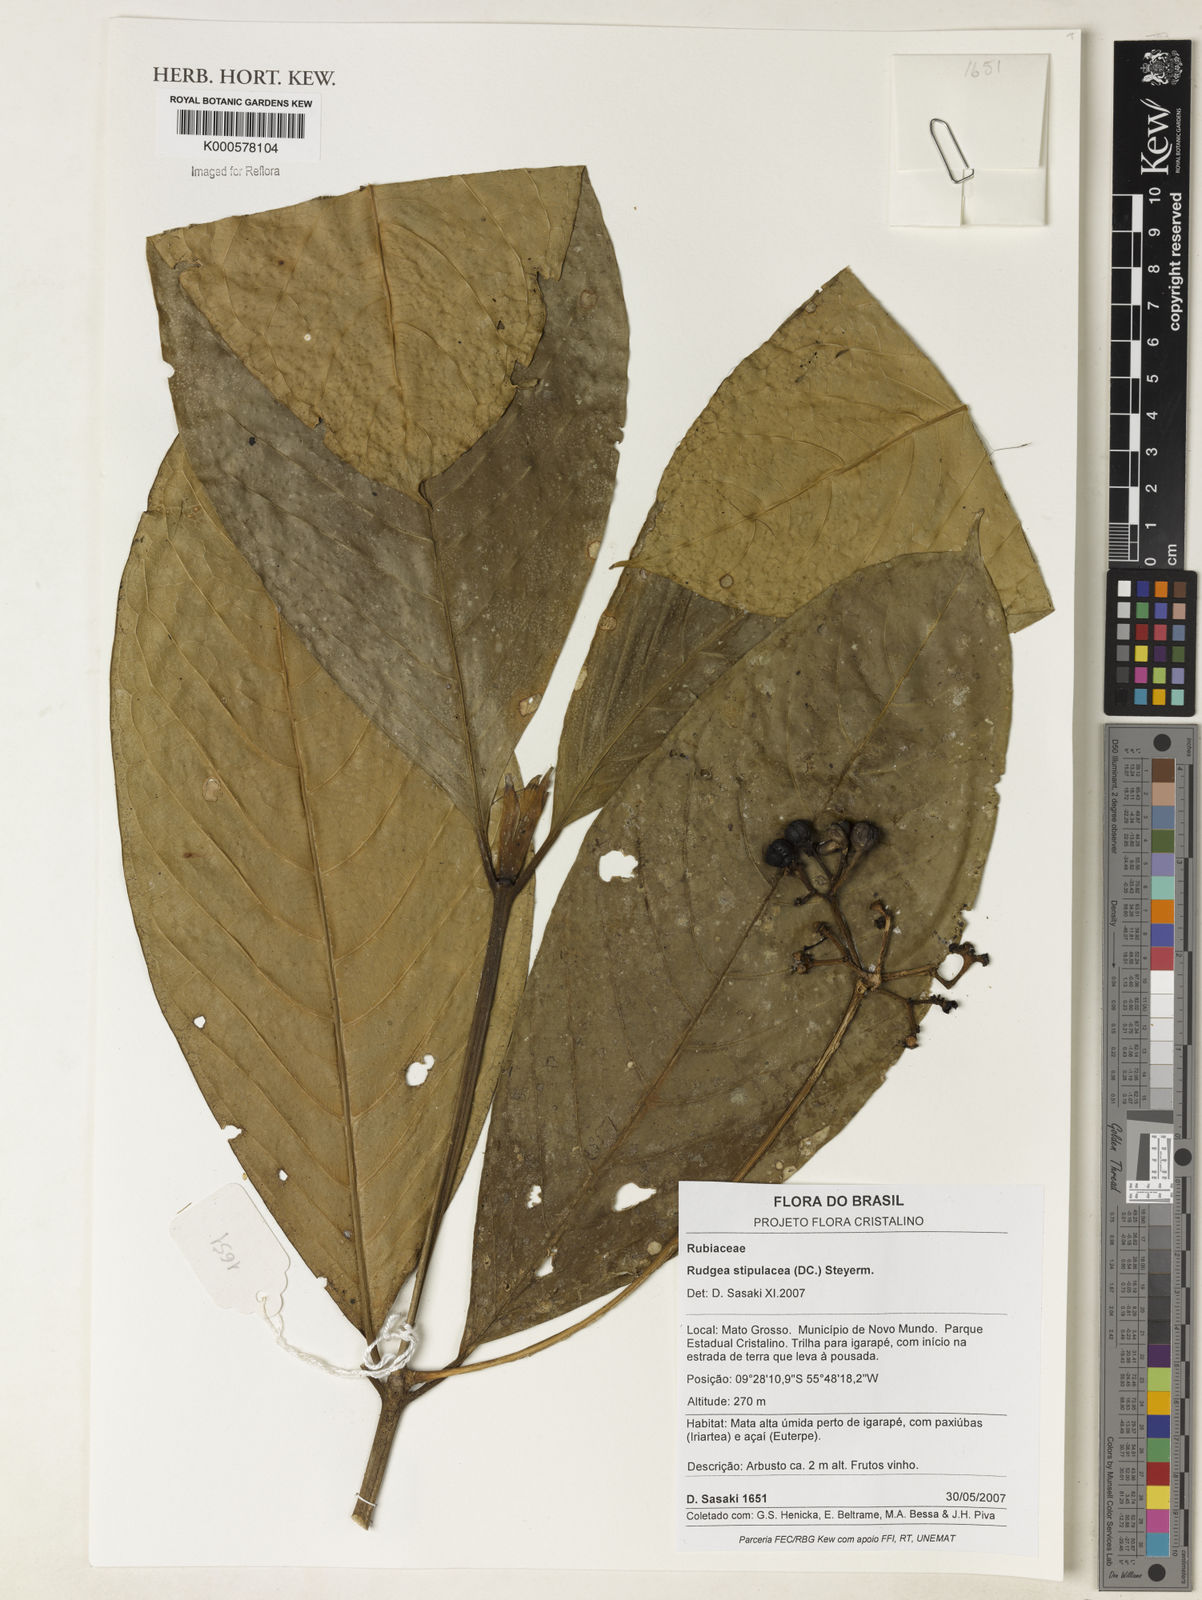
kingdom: Plantae
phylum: Tracheophyta
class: Magnoliopsida
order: Gentianales
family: Rubiaceae
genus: Rudgea
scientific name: Rudgea stipulacea
